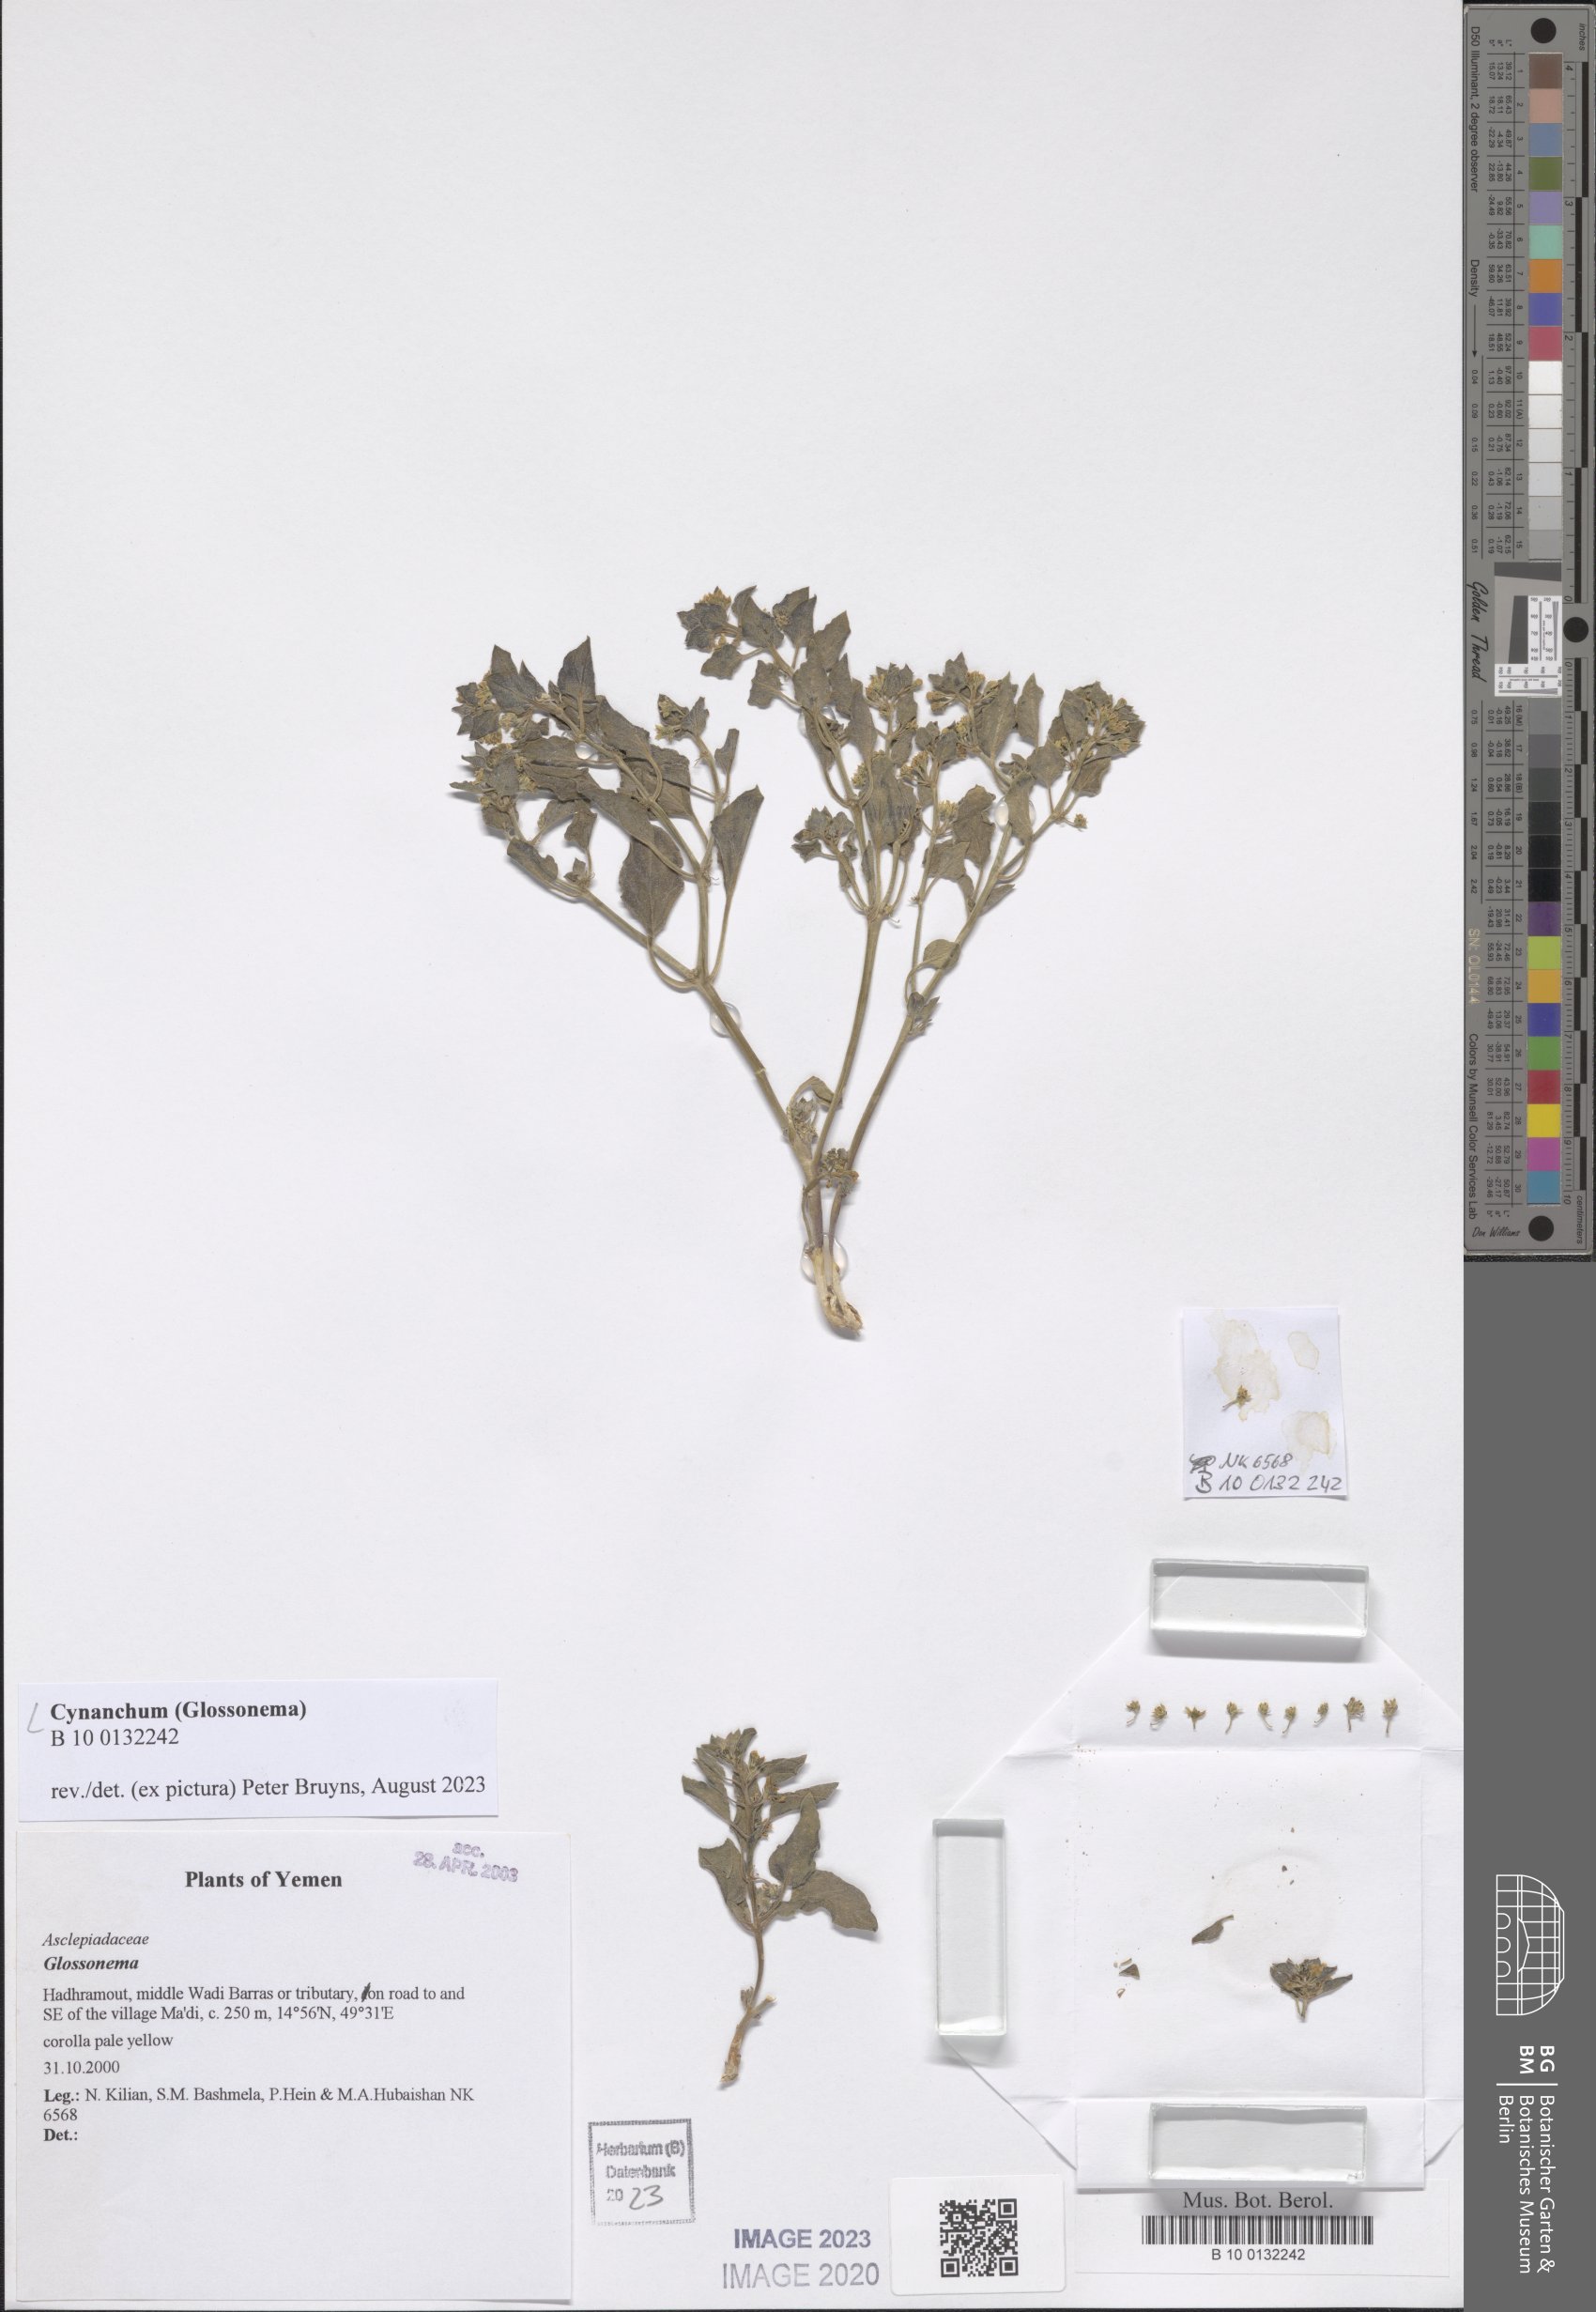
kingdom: Plantae
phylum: Tracheophyta
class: Magnoliopsida
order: Gentianales
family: Apocynaceae
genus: Cynanchum
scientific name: Cynanchum
